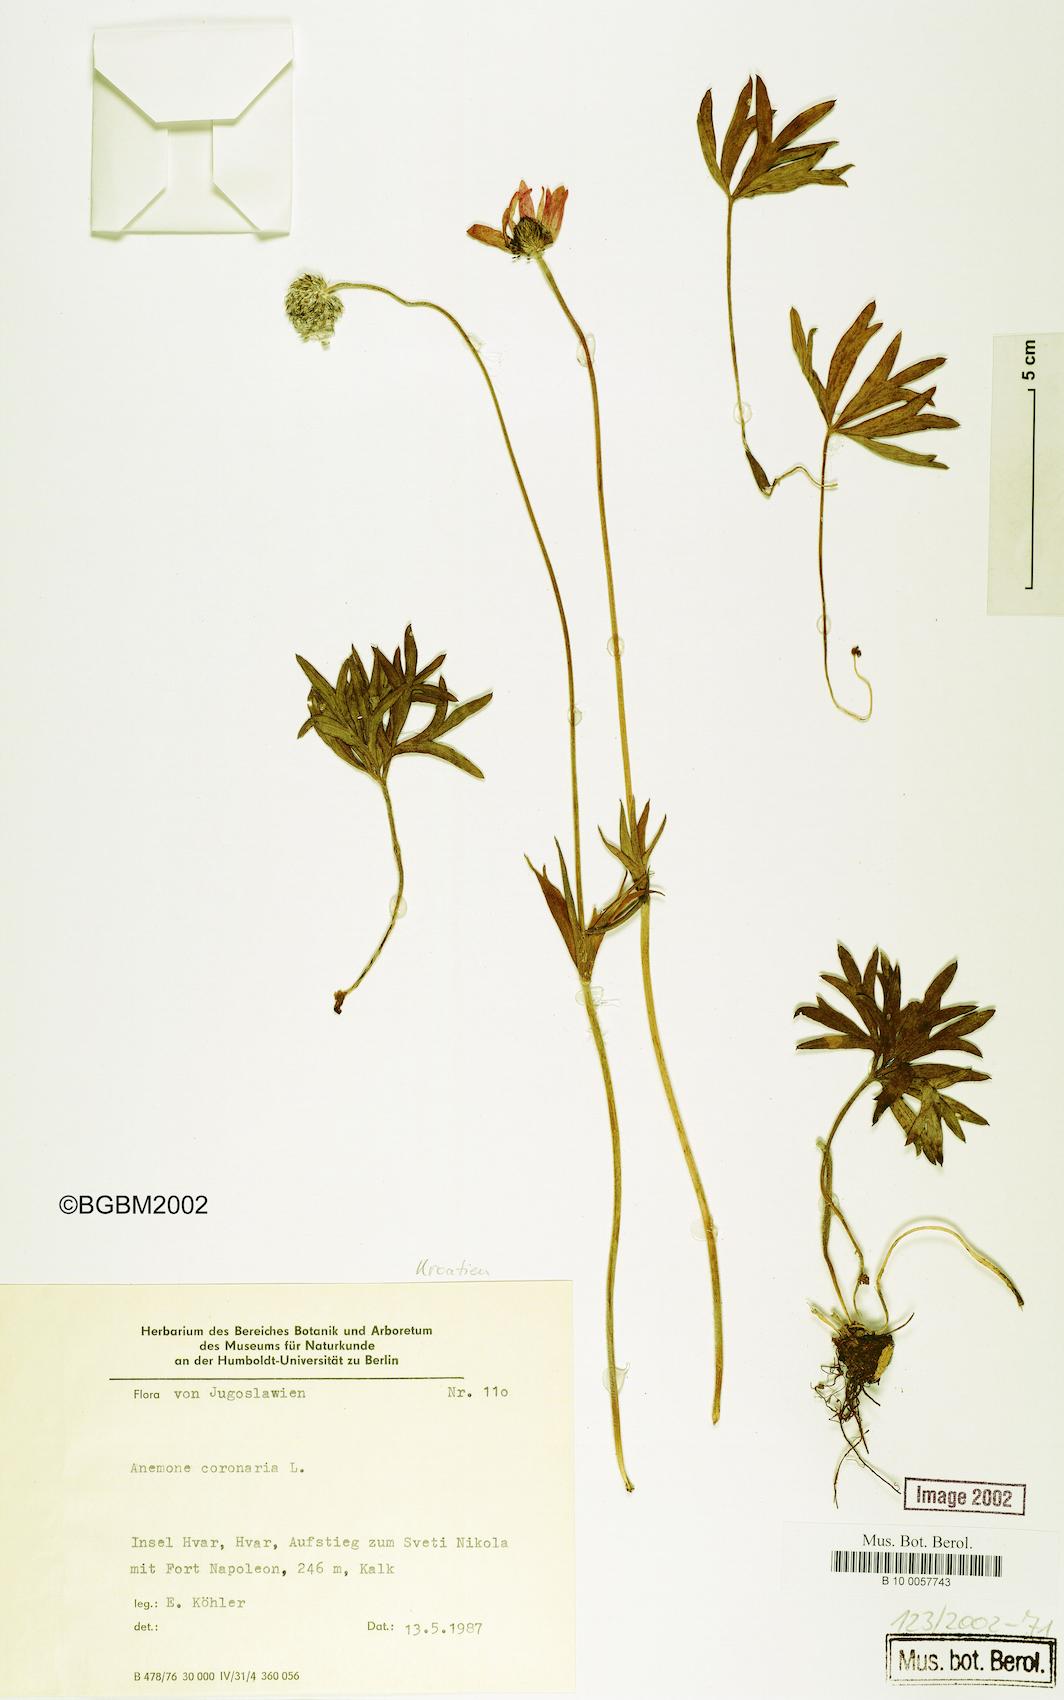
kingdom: Plantae
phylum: Tracheophyta
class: Magnoliopsida
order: Ranunculales
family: Ranunculaceae
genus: Anemone
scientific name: Anemone coronaria
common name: Poppy anemone
